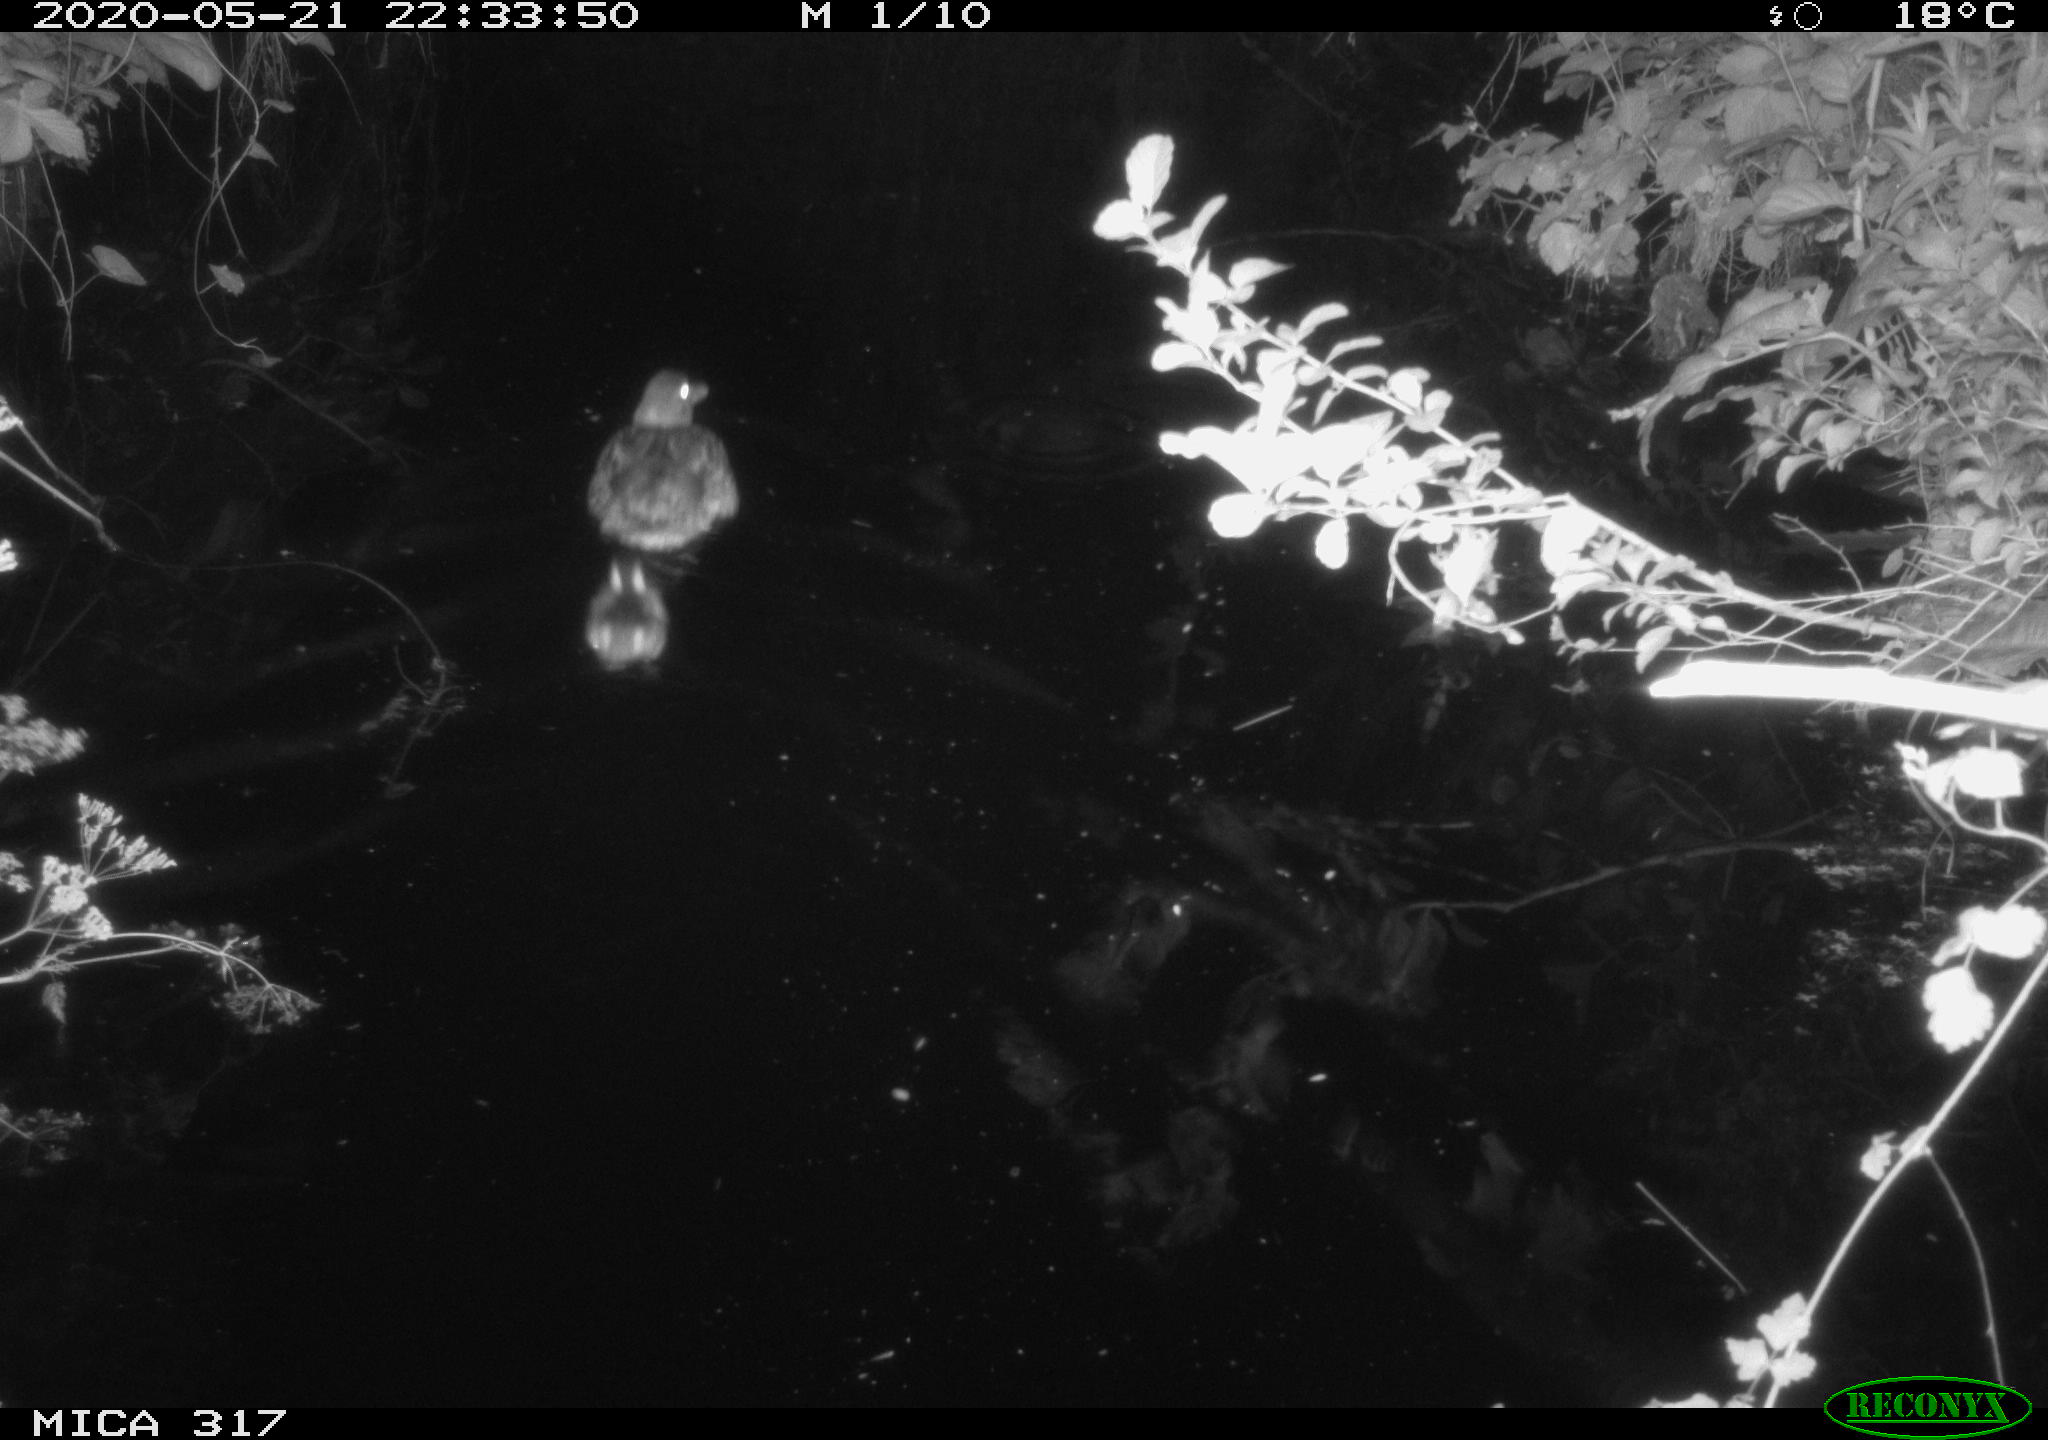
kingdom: Animalia
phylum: Chordata
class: Aves
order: Anseriformes
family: Anatidae
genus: Anas
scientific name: Anas platyrhynchos
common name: Mallard
